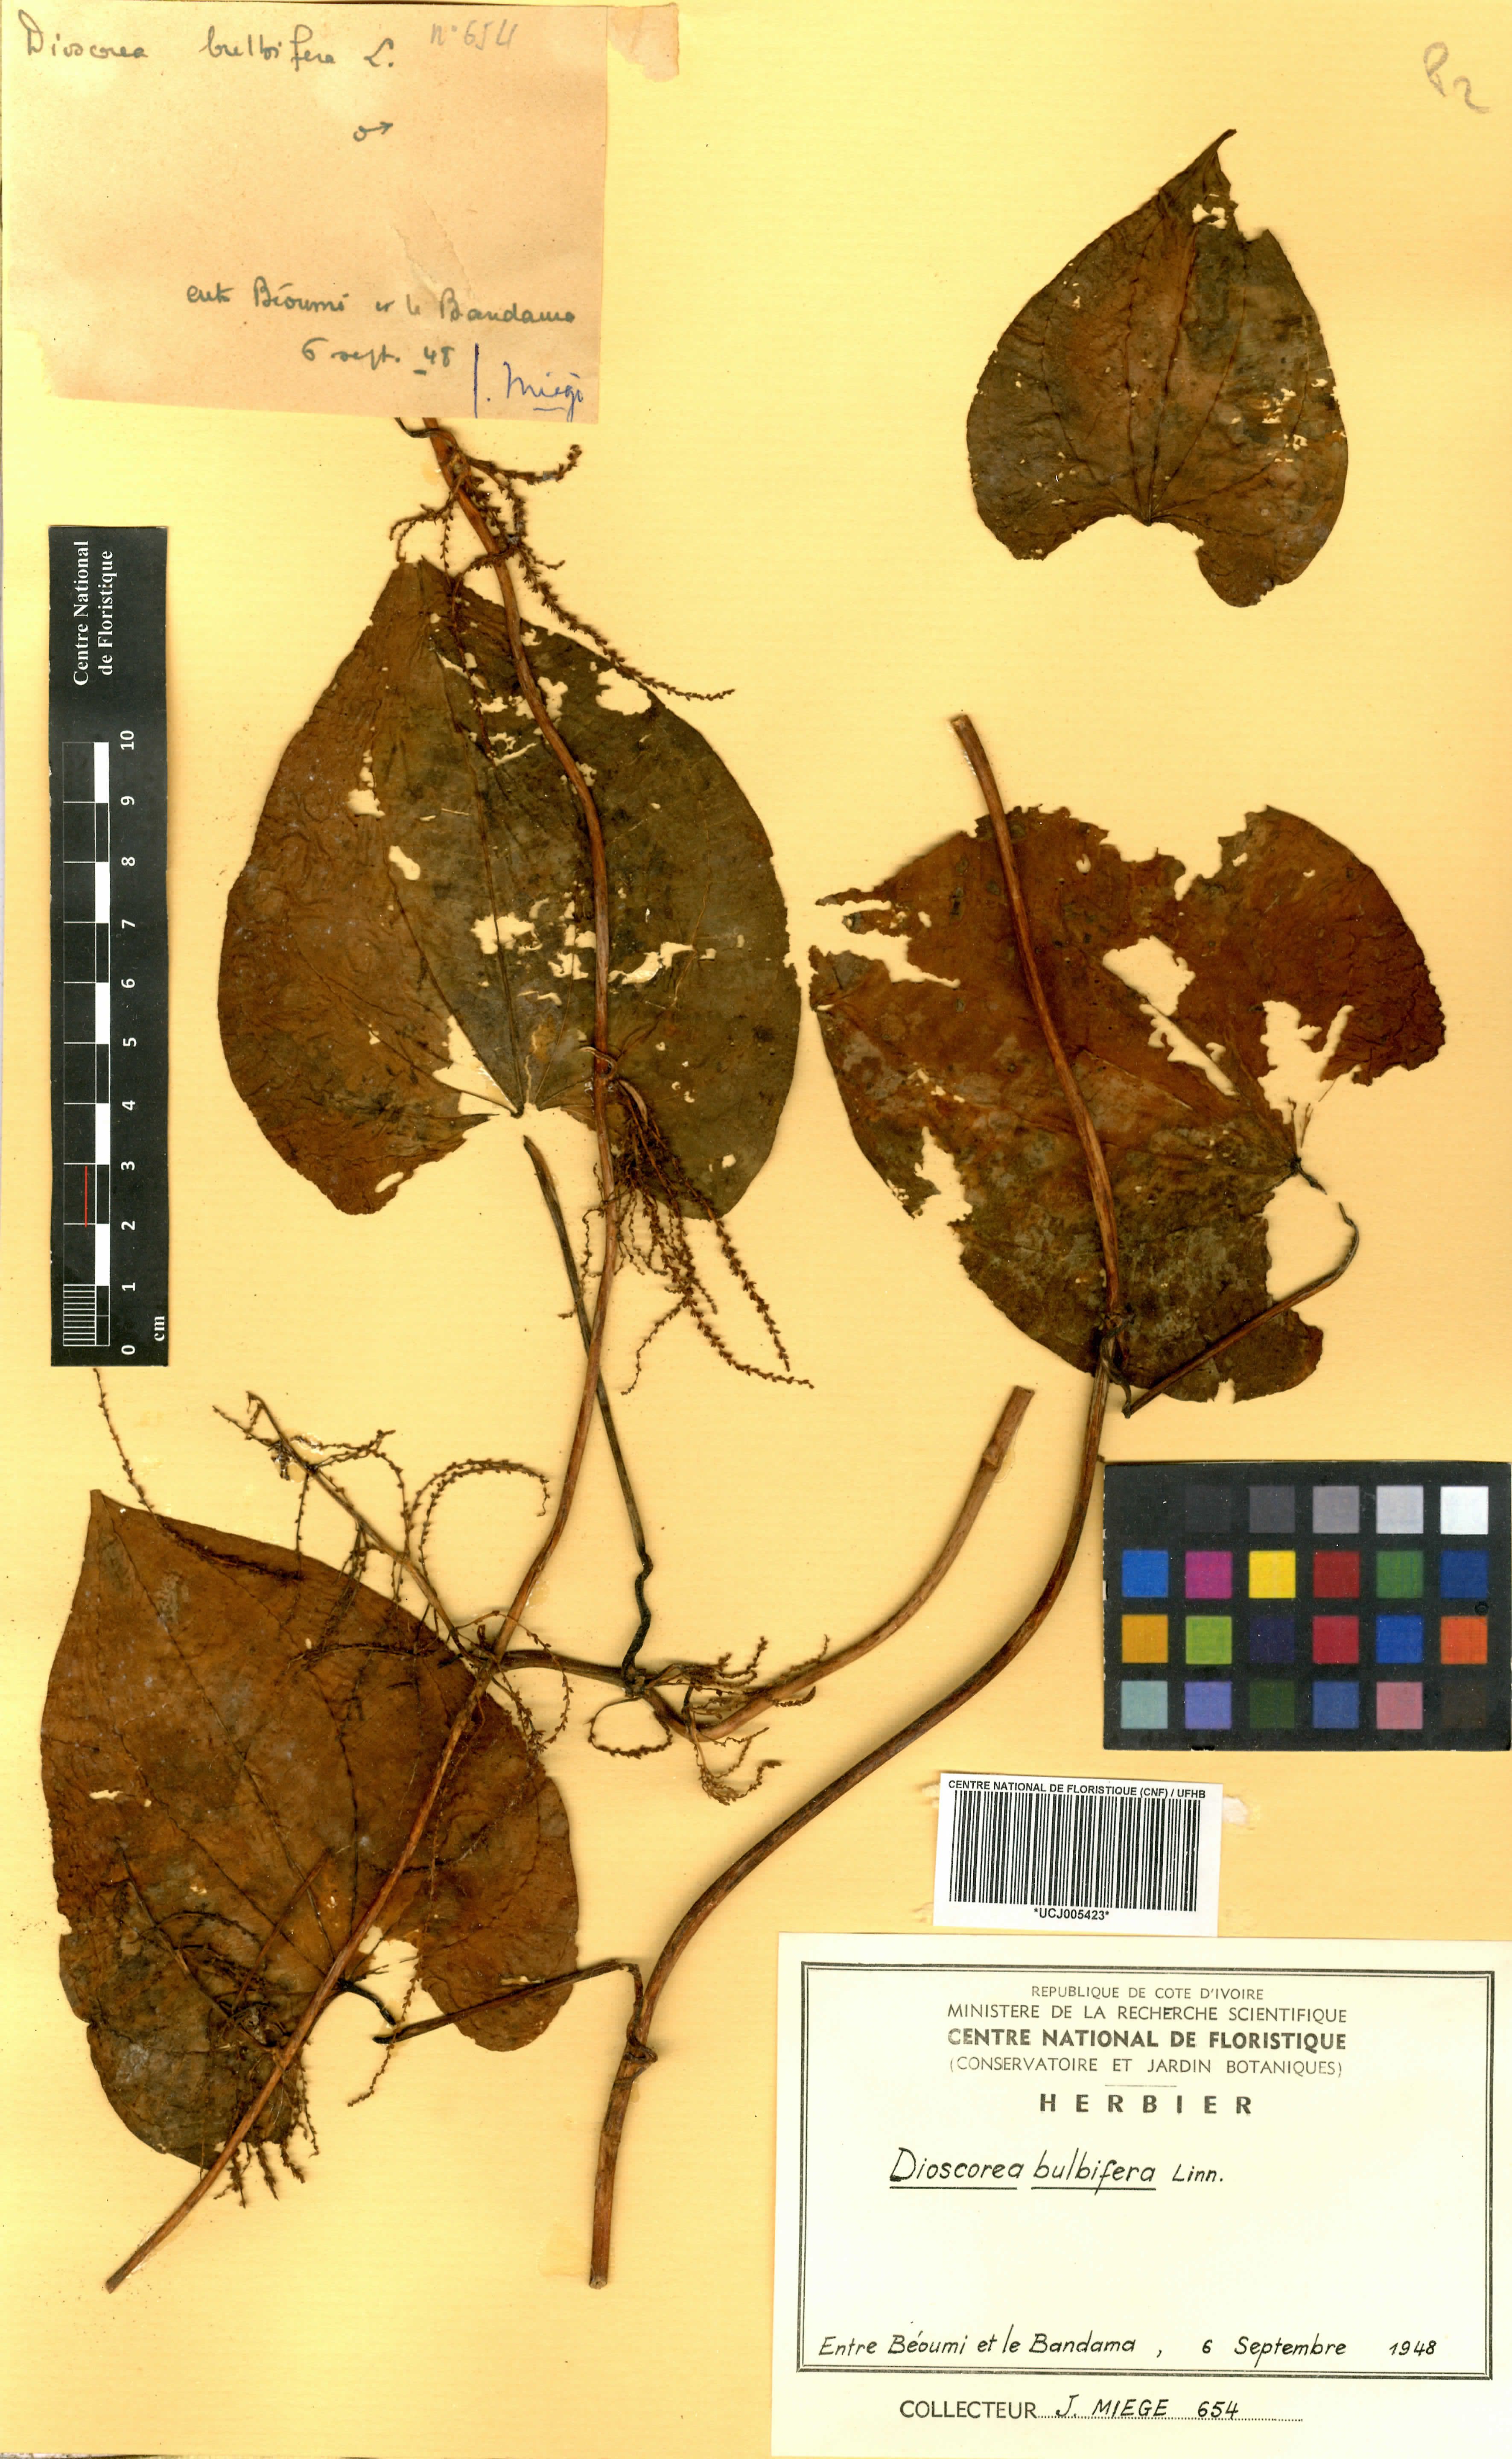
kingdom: Plantae
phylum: Tracheophyta
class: Liliopsida
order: Dioscoreales
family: Dioscoreaceae
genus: Dioscorea
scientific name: Dioscorea cayenensis
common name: Attoto yam
